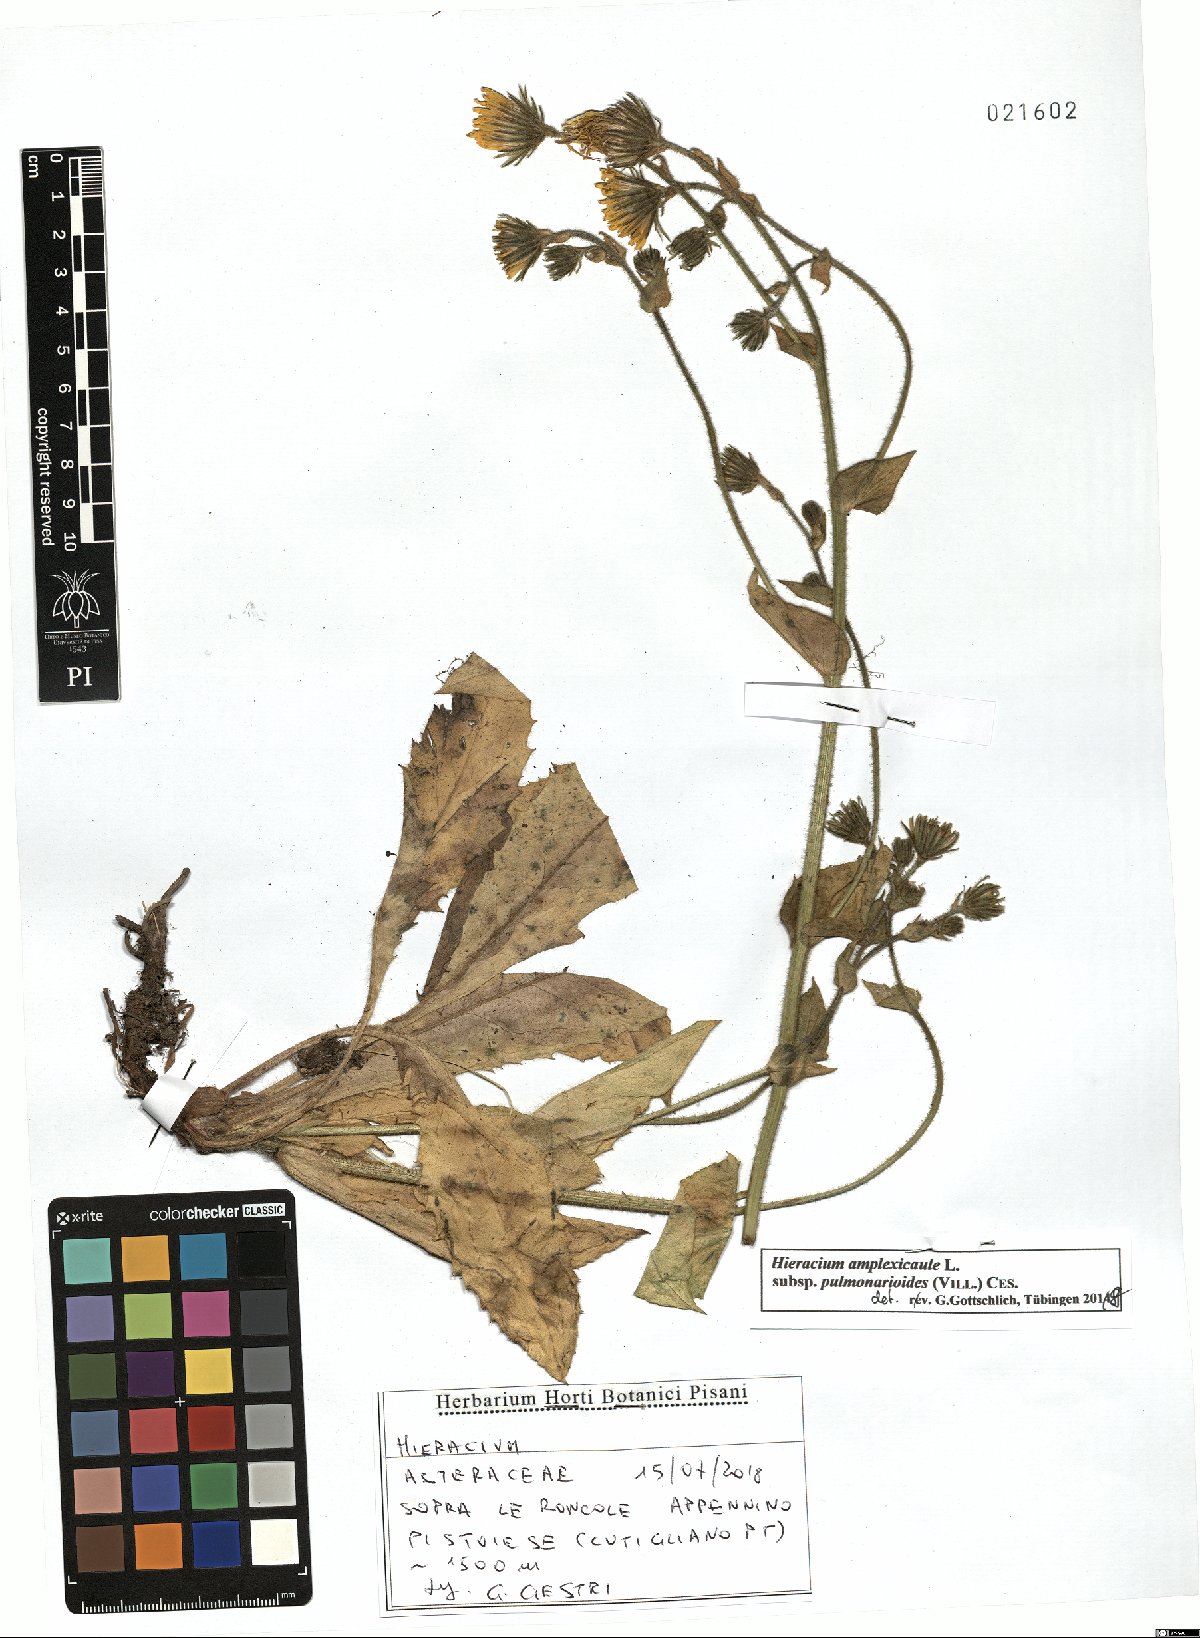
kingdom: Plantae
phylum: Tracheophyta
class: Magnoliopsida
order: Asterales
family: Asteraceae
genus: Hieracium
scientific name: Hieracium pulmonarioides
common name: Wall hawkweed
